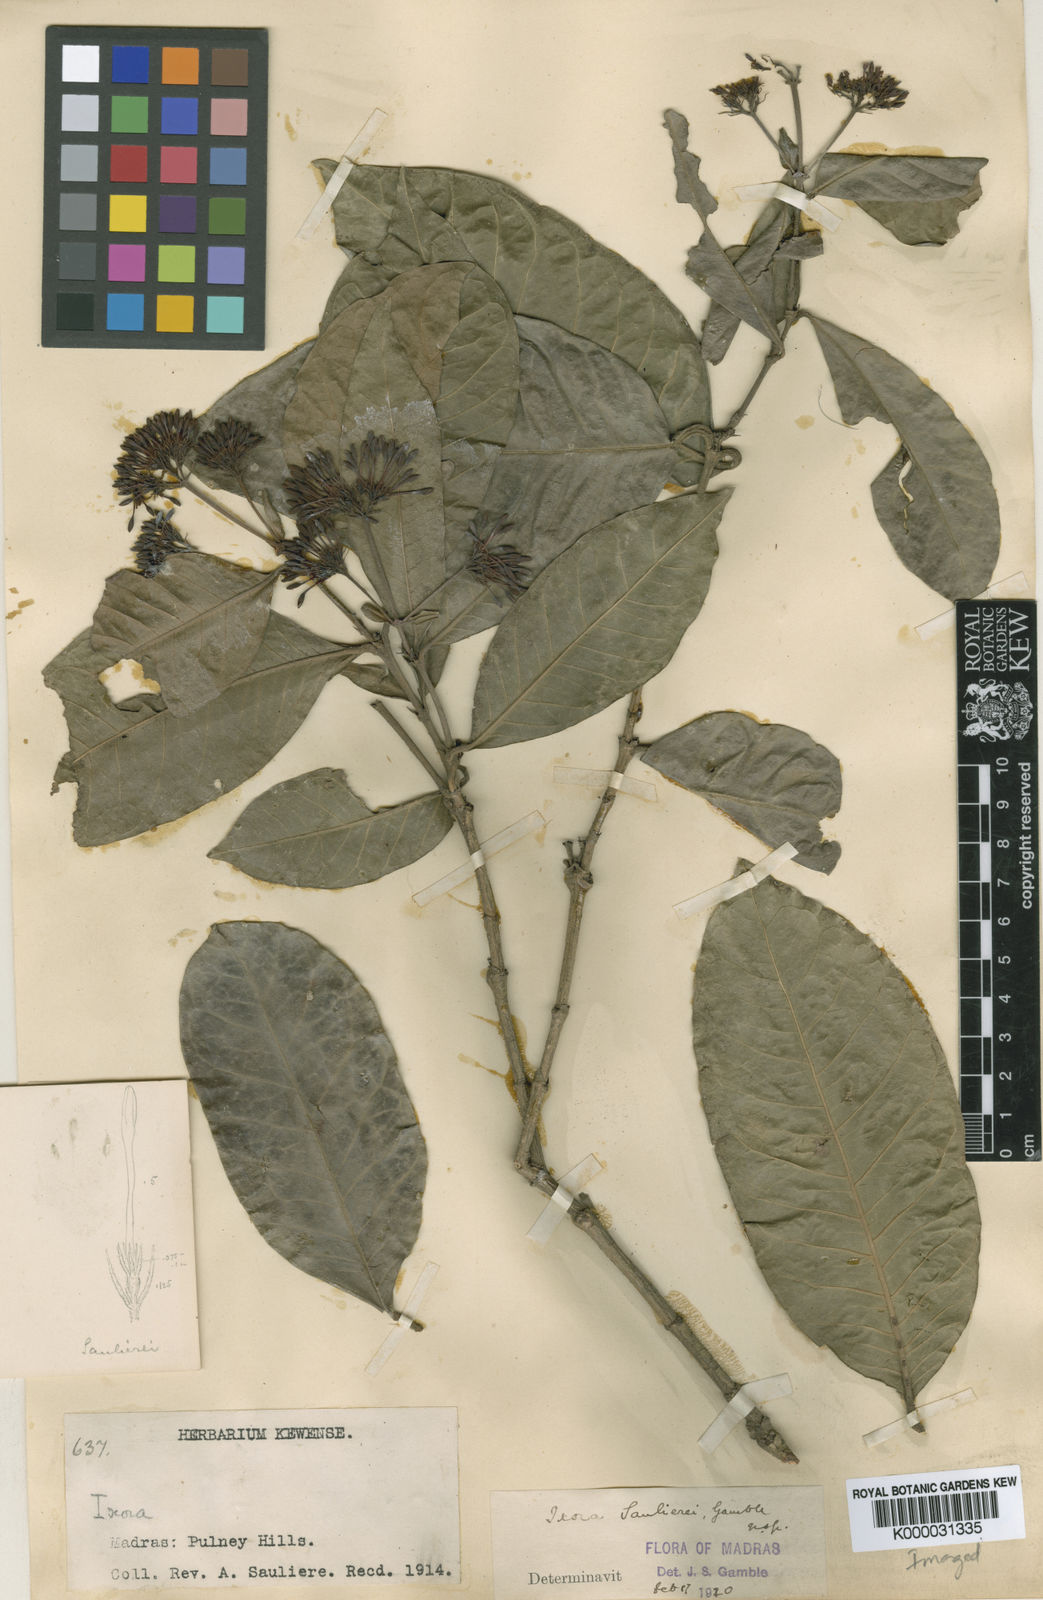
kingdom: Plantae
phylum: Tracheophyta
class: Magnoliopsida
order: Gentianales
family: Rubiaceae
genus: Ixora
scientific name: Ixora
